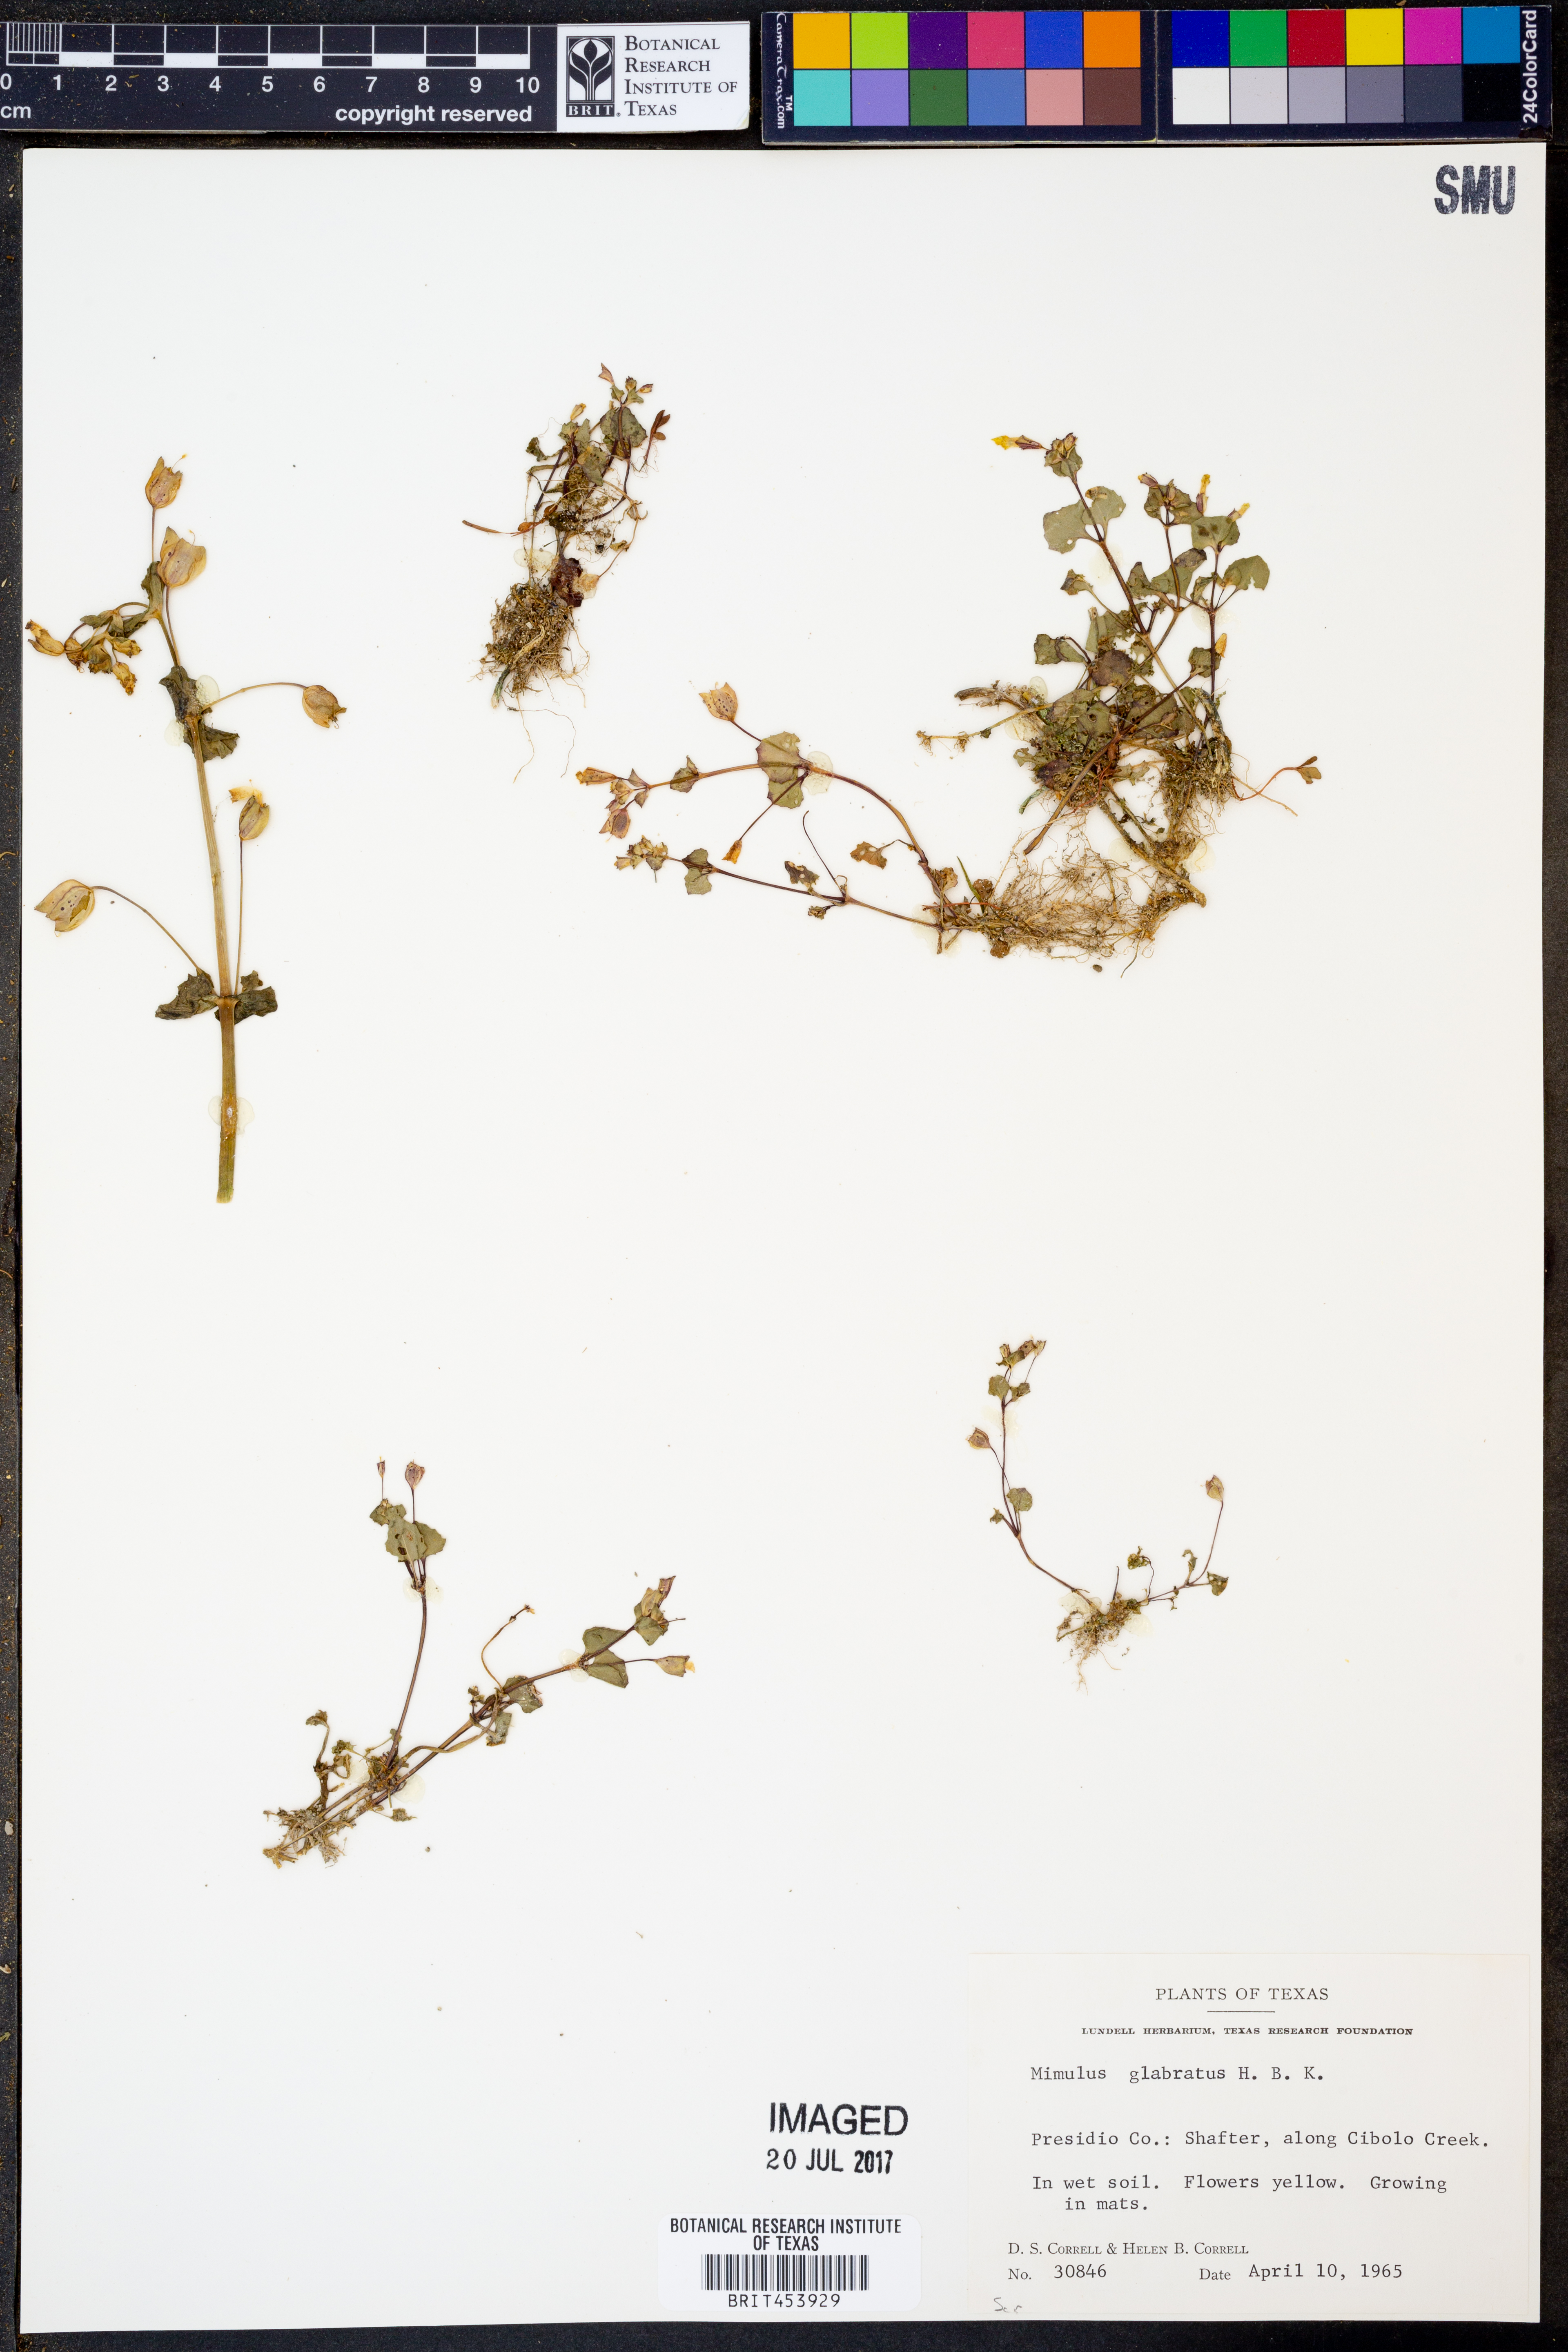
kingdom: Plantae
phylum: Tracheophyta
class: Magnoliopsida
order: Lamiales
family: Phrymaceae
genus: Erythranthe
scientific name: Erythranthe glabrata
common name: Round-leaved monkeyflower
